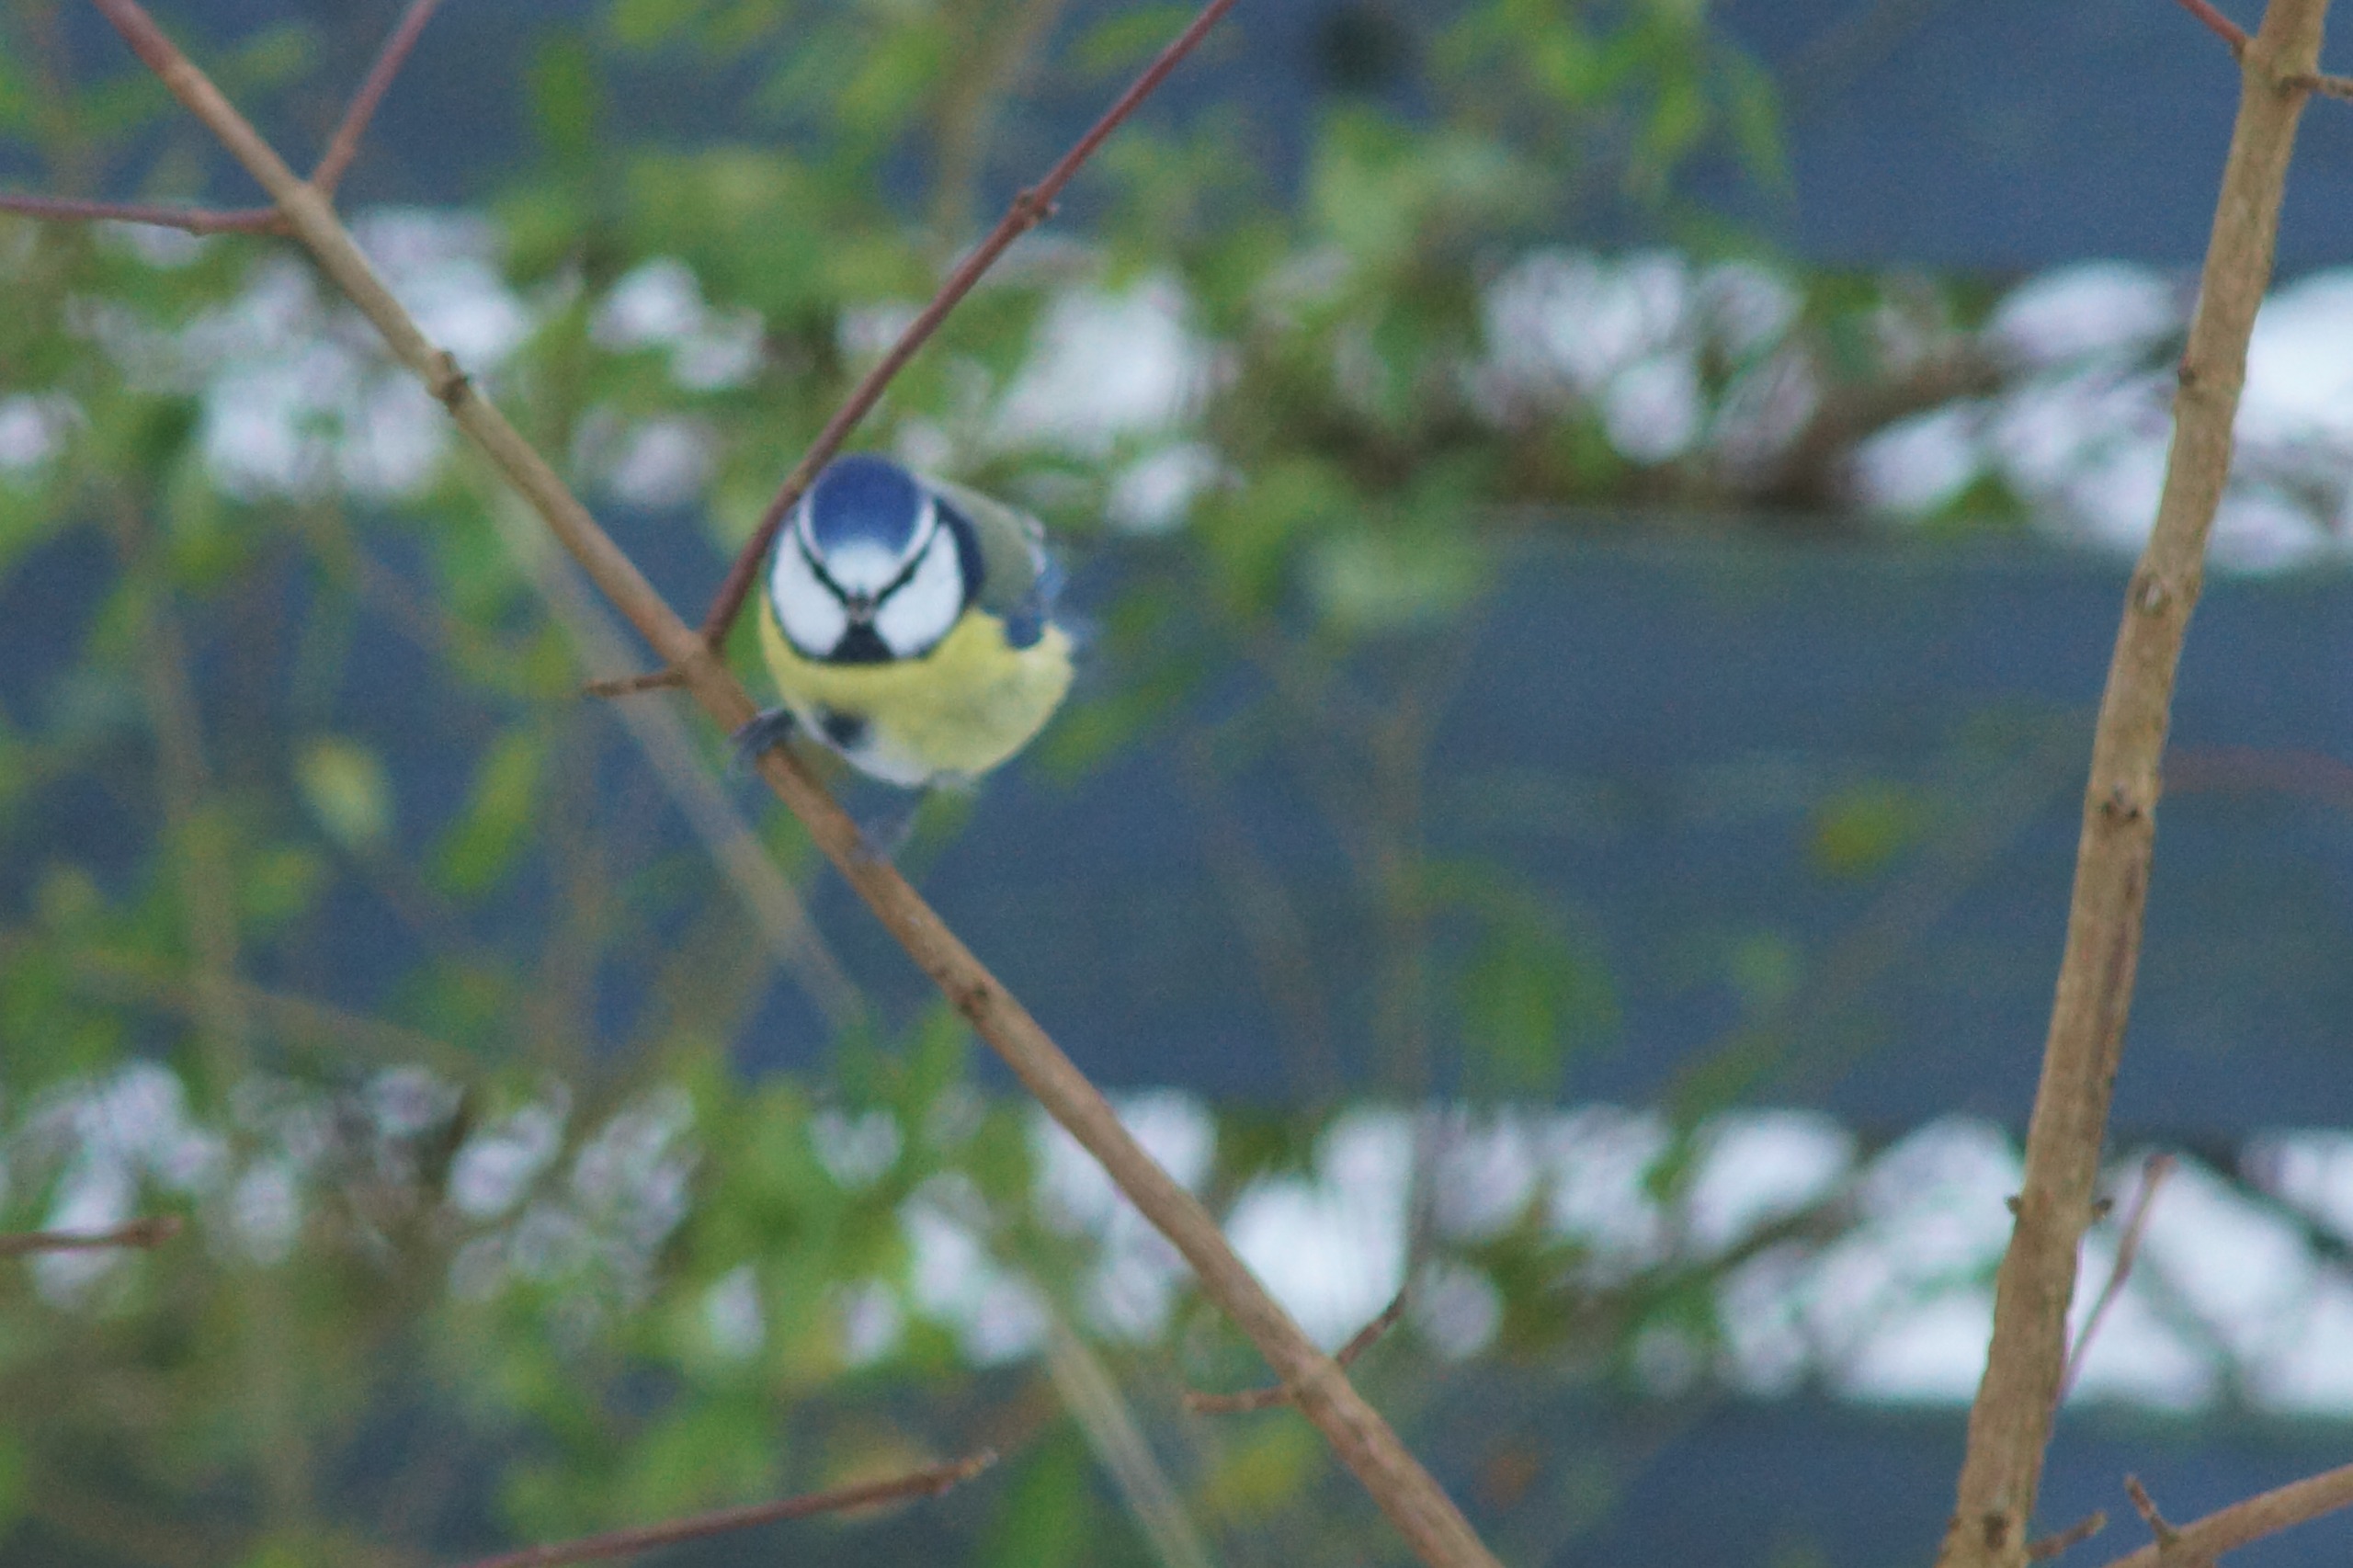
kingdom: Animalia
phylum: Chordata
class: Aves
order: Passeriformes
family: Paridae
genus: Cyanistes
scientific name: Cyanistes caeruleus
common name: Blåmejse
